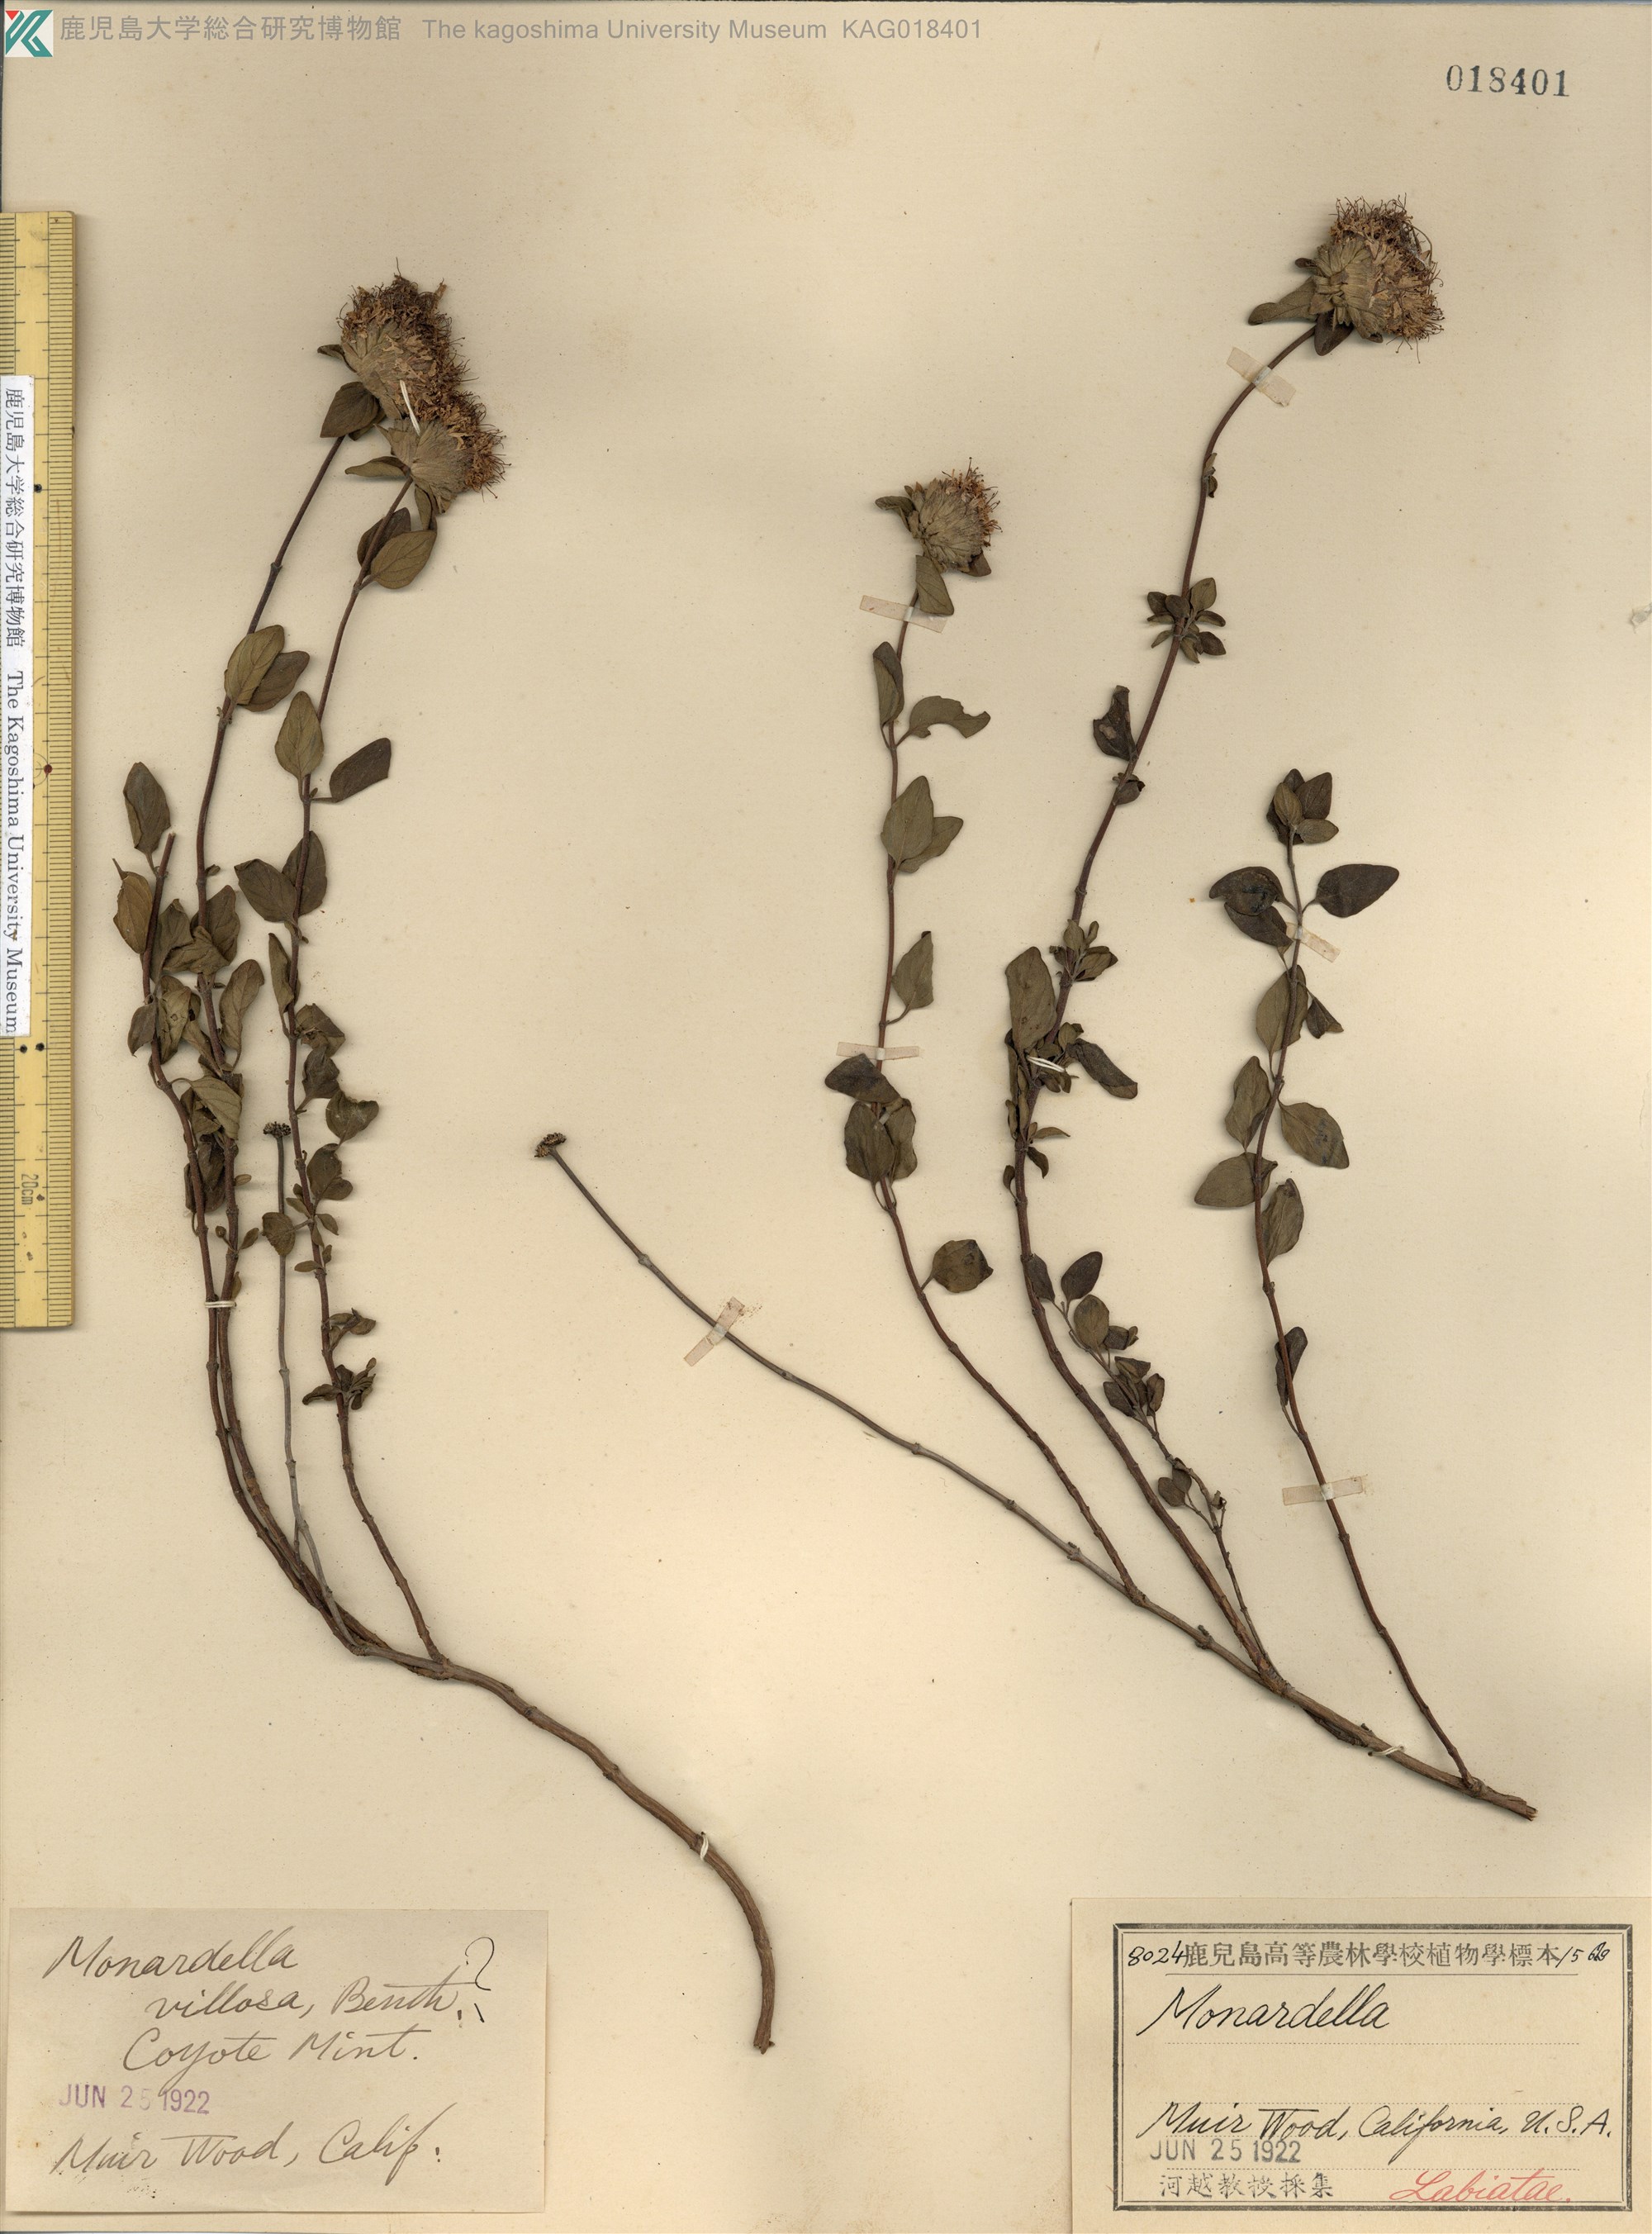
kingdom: Plantae
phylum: Tracheophyta
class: Magnoliopsida
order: Lamiales
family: Lamiaceae
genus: Monardella
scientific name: Monardella
